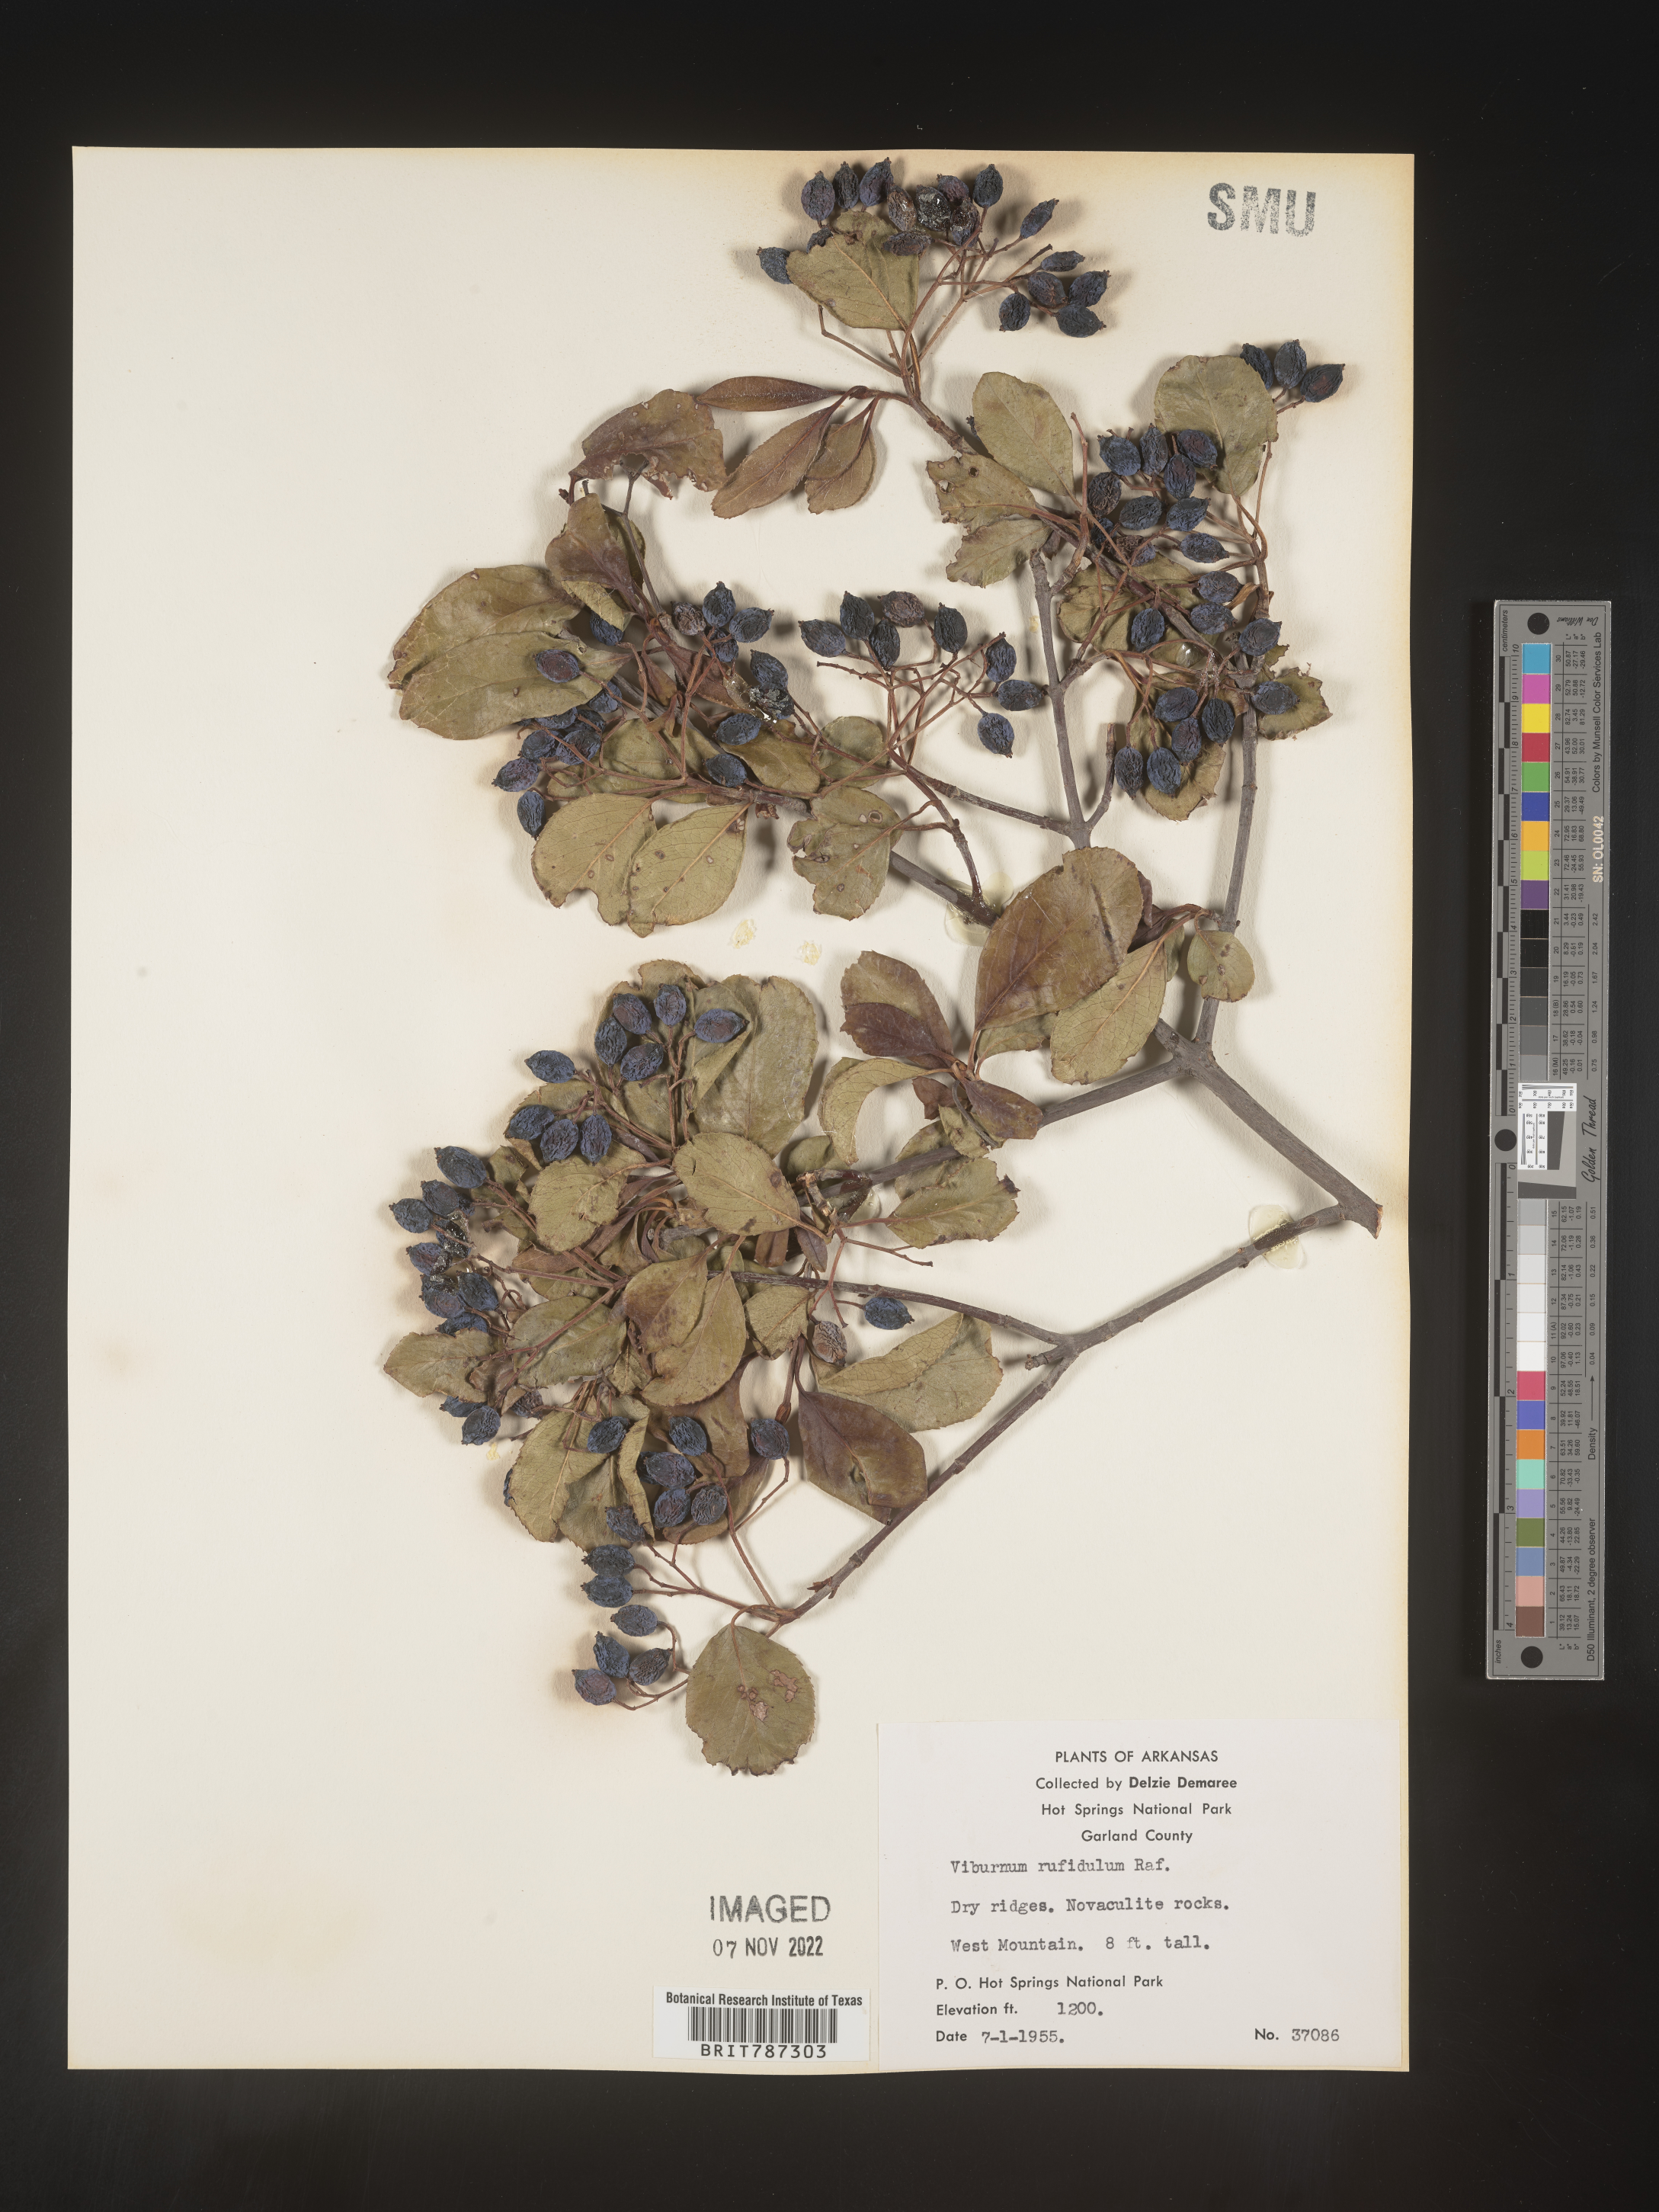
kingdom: Plantae
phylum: Tracheophyta
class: Magnoliopsida
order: Dipsacales
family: Viburnaceae
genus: Viburnum
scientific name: Viburnum rufidulum
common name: Blue haw
